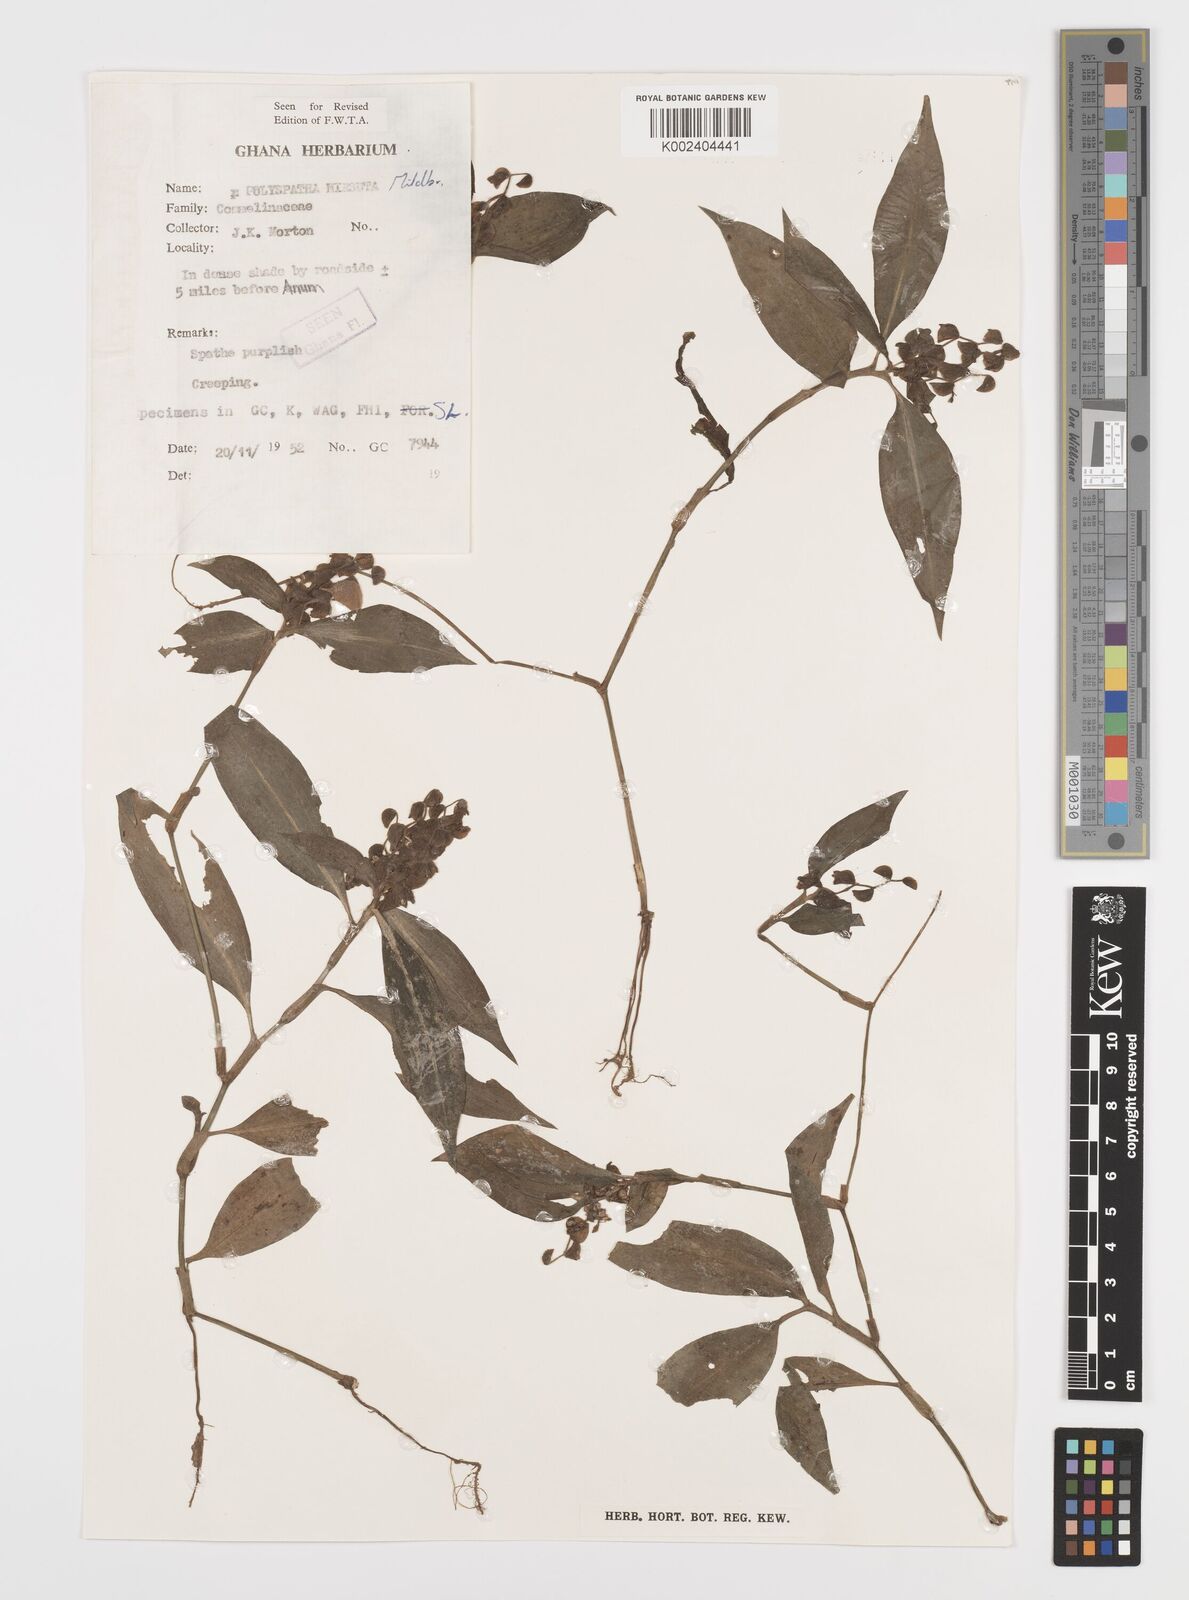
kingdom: Plantae
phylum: Tracheophyta
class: Liliopsida
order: Commelinales
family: Commelinaceae
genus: Polyspatha
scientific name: Polyspatha hirsuta
